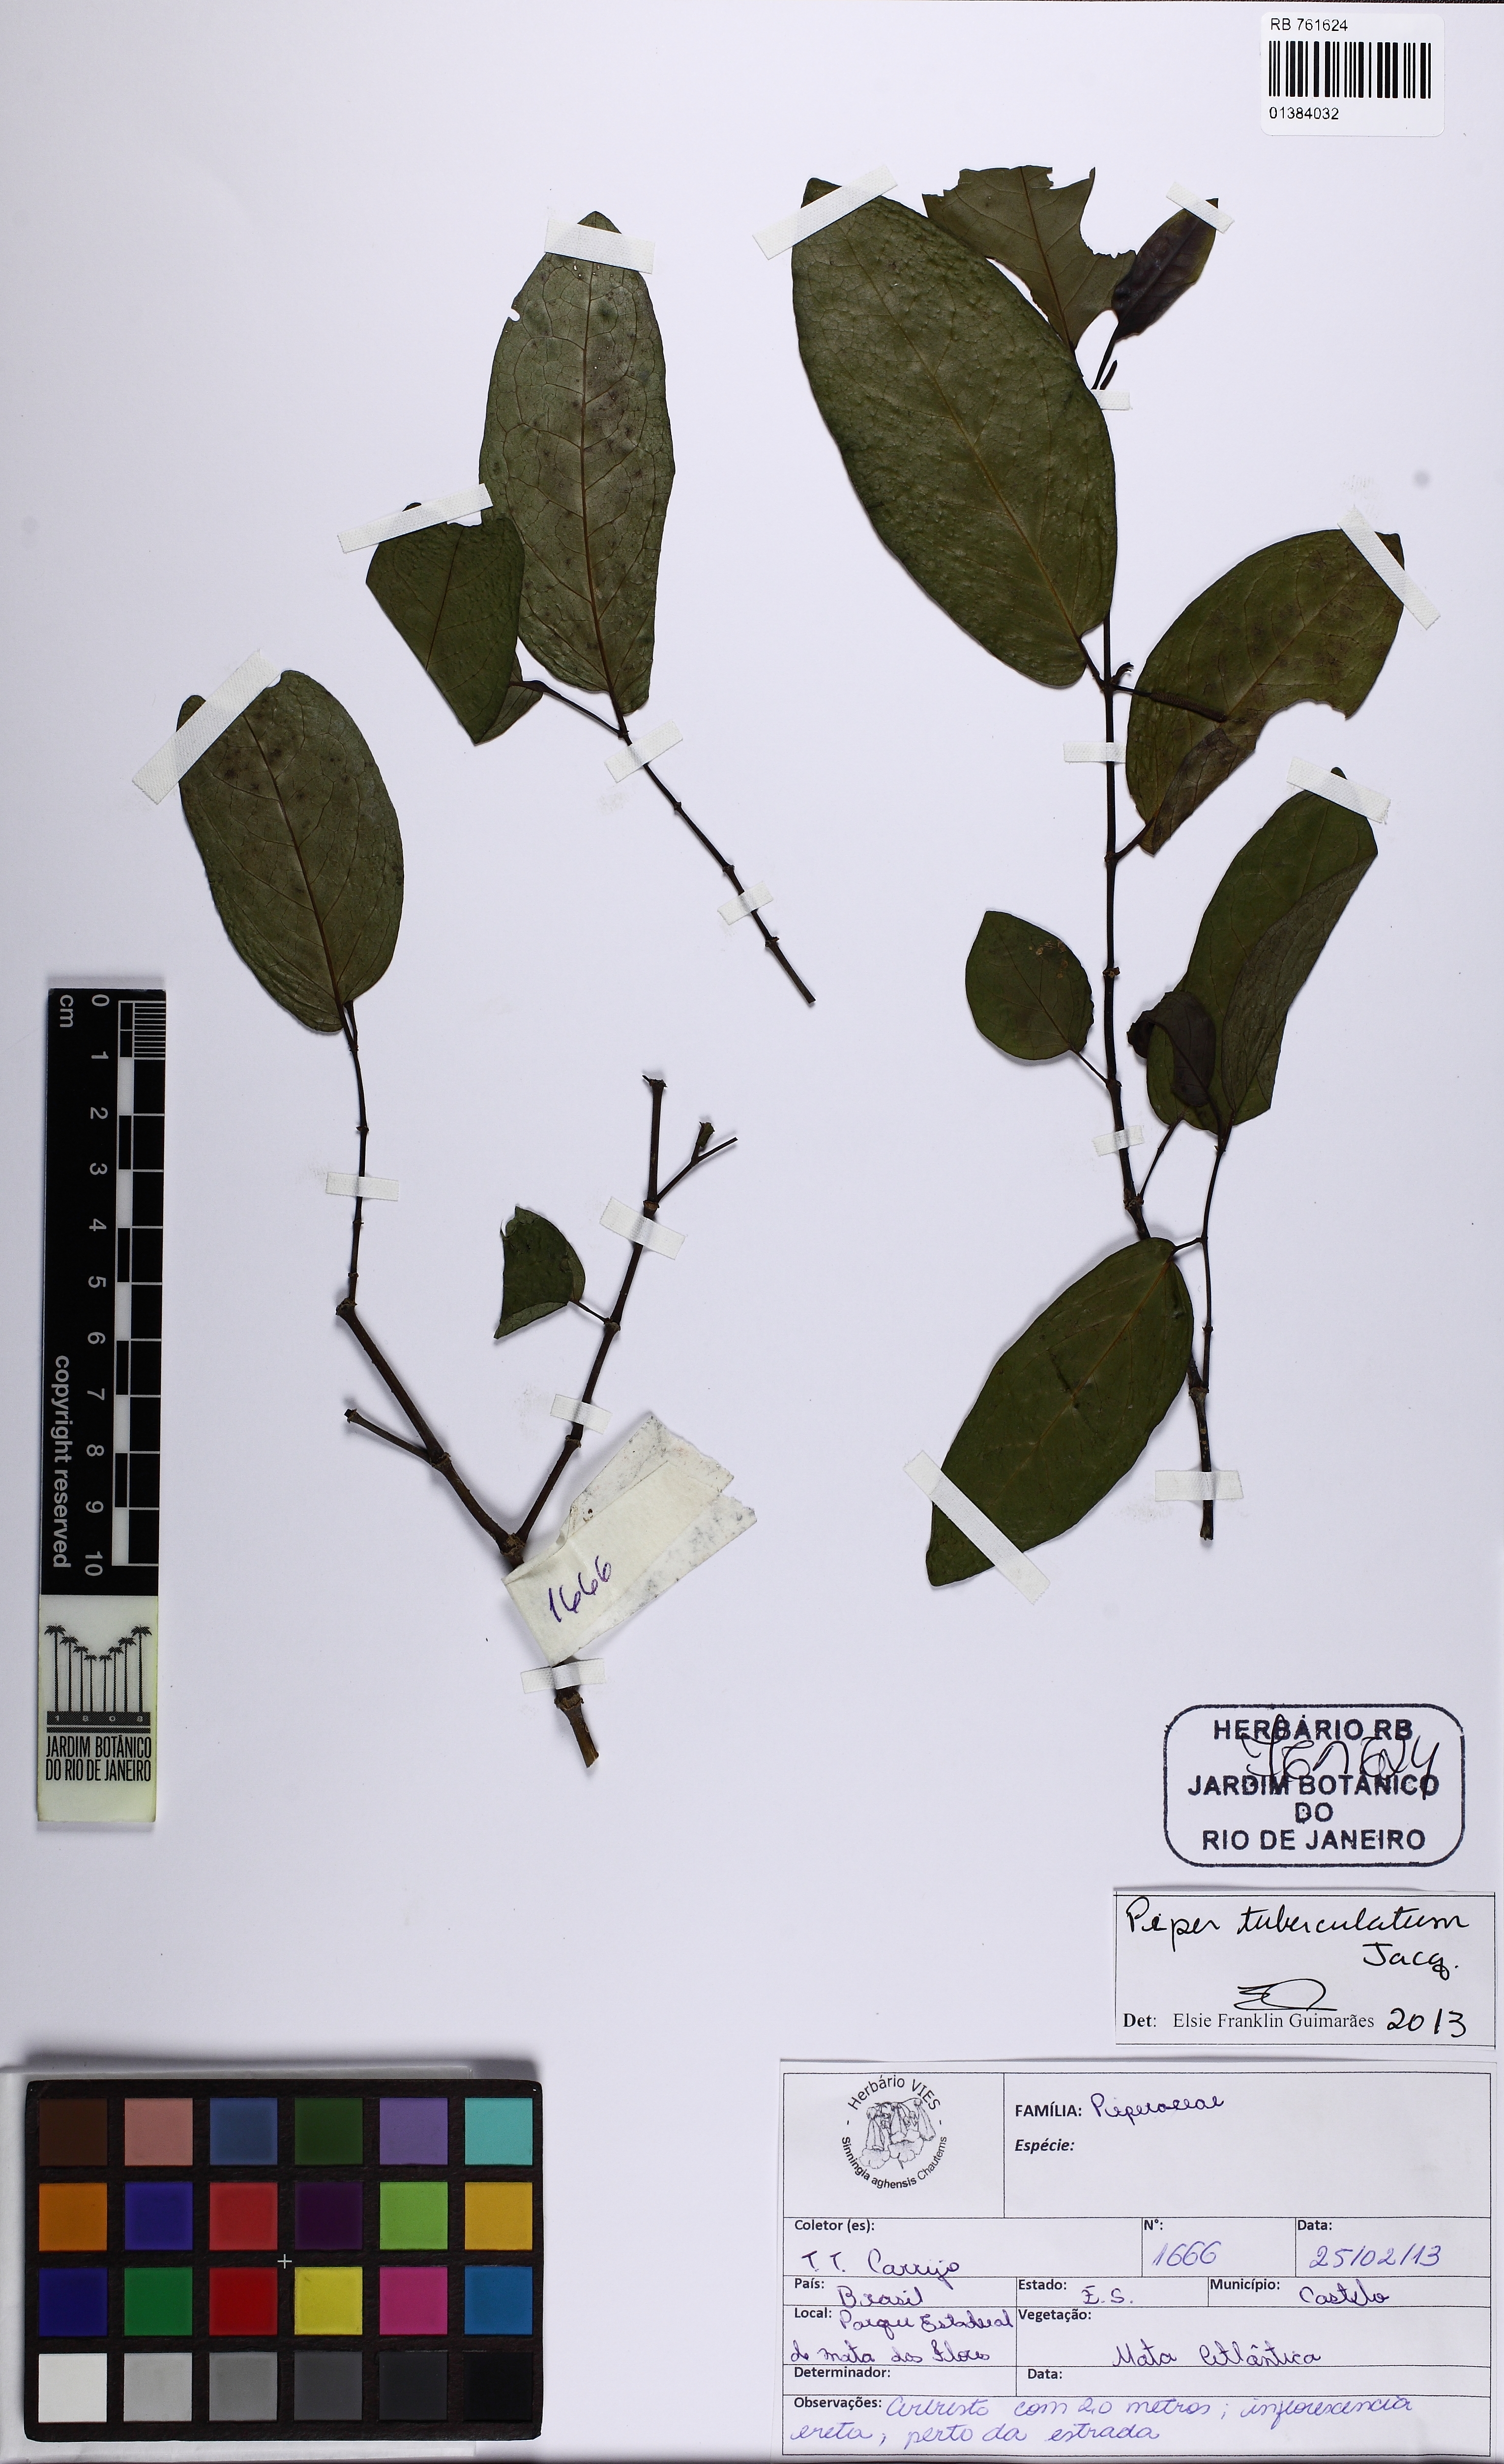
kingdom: Plantae
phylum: Tracheophyta
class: Magnoliopsida
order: Piperales
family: Piperaceae
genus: Piper
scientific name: Piper tuberculatum
